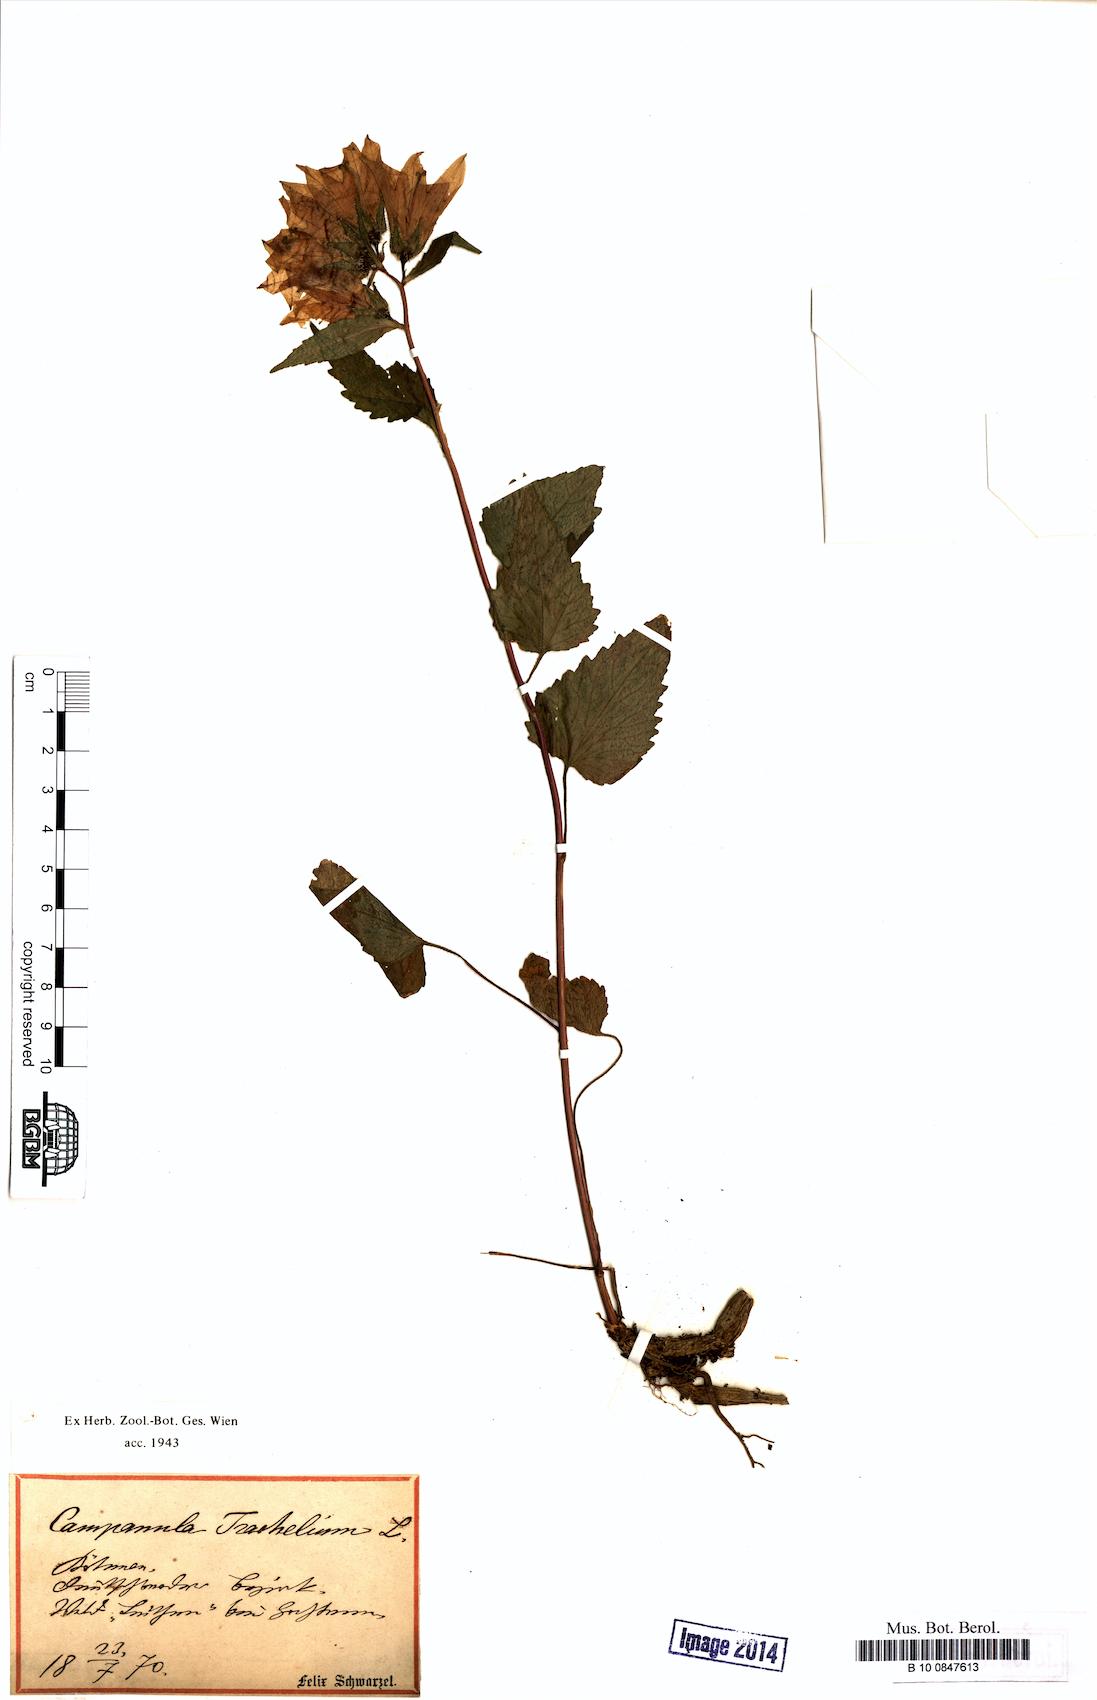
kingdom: Plantae
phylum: Tracheophyta
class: Magnoliopsida
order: Asterales
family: Campanulaceae
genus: Campanula
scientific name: Campanula trachelium
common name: Nettle-leaved bellflower
